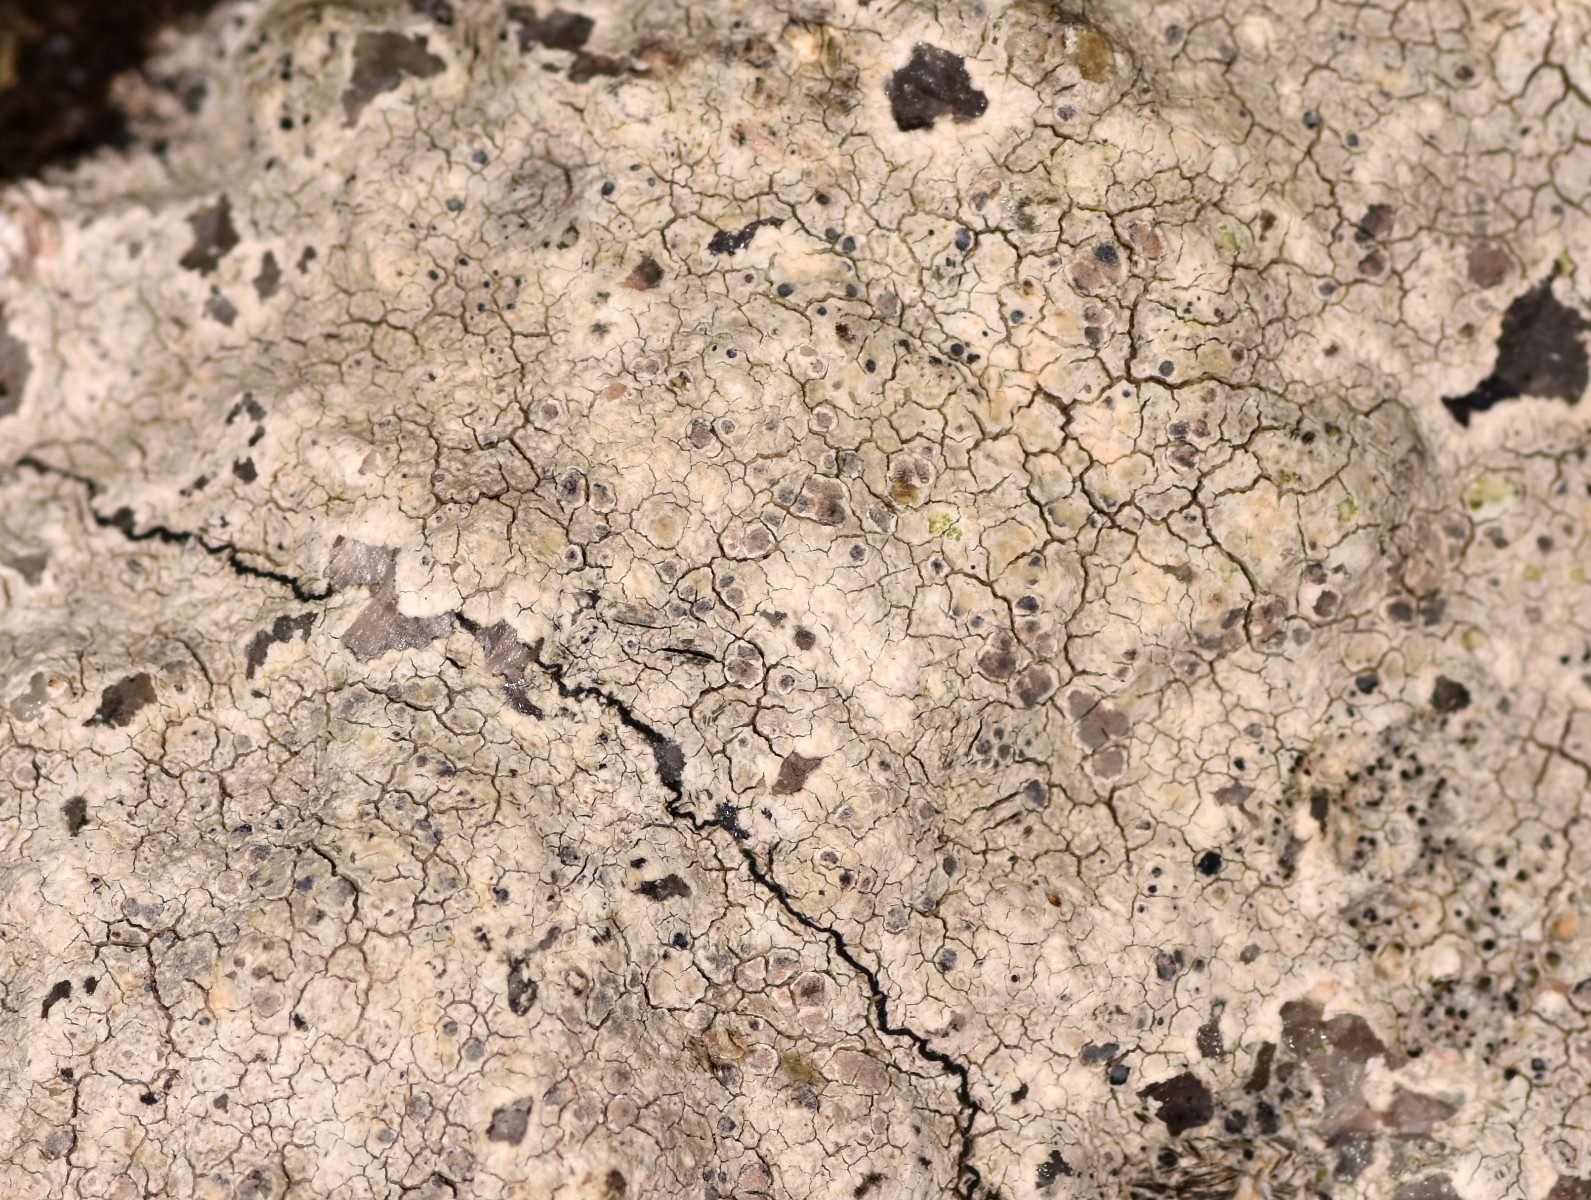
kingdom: Fungi
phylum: Ascomycota
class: Arthoniomycetes
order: Arthoniales
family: Arthoniaceae
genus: Arthonia
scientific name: Arthonia varians
